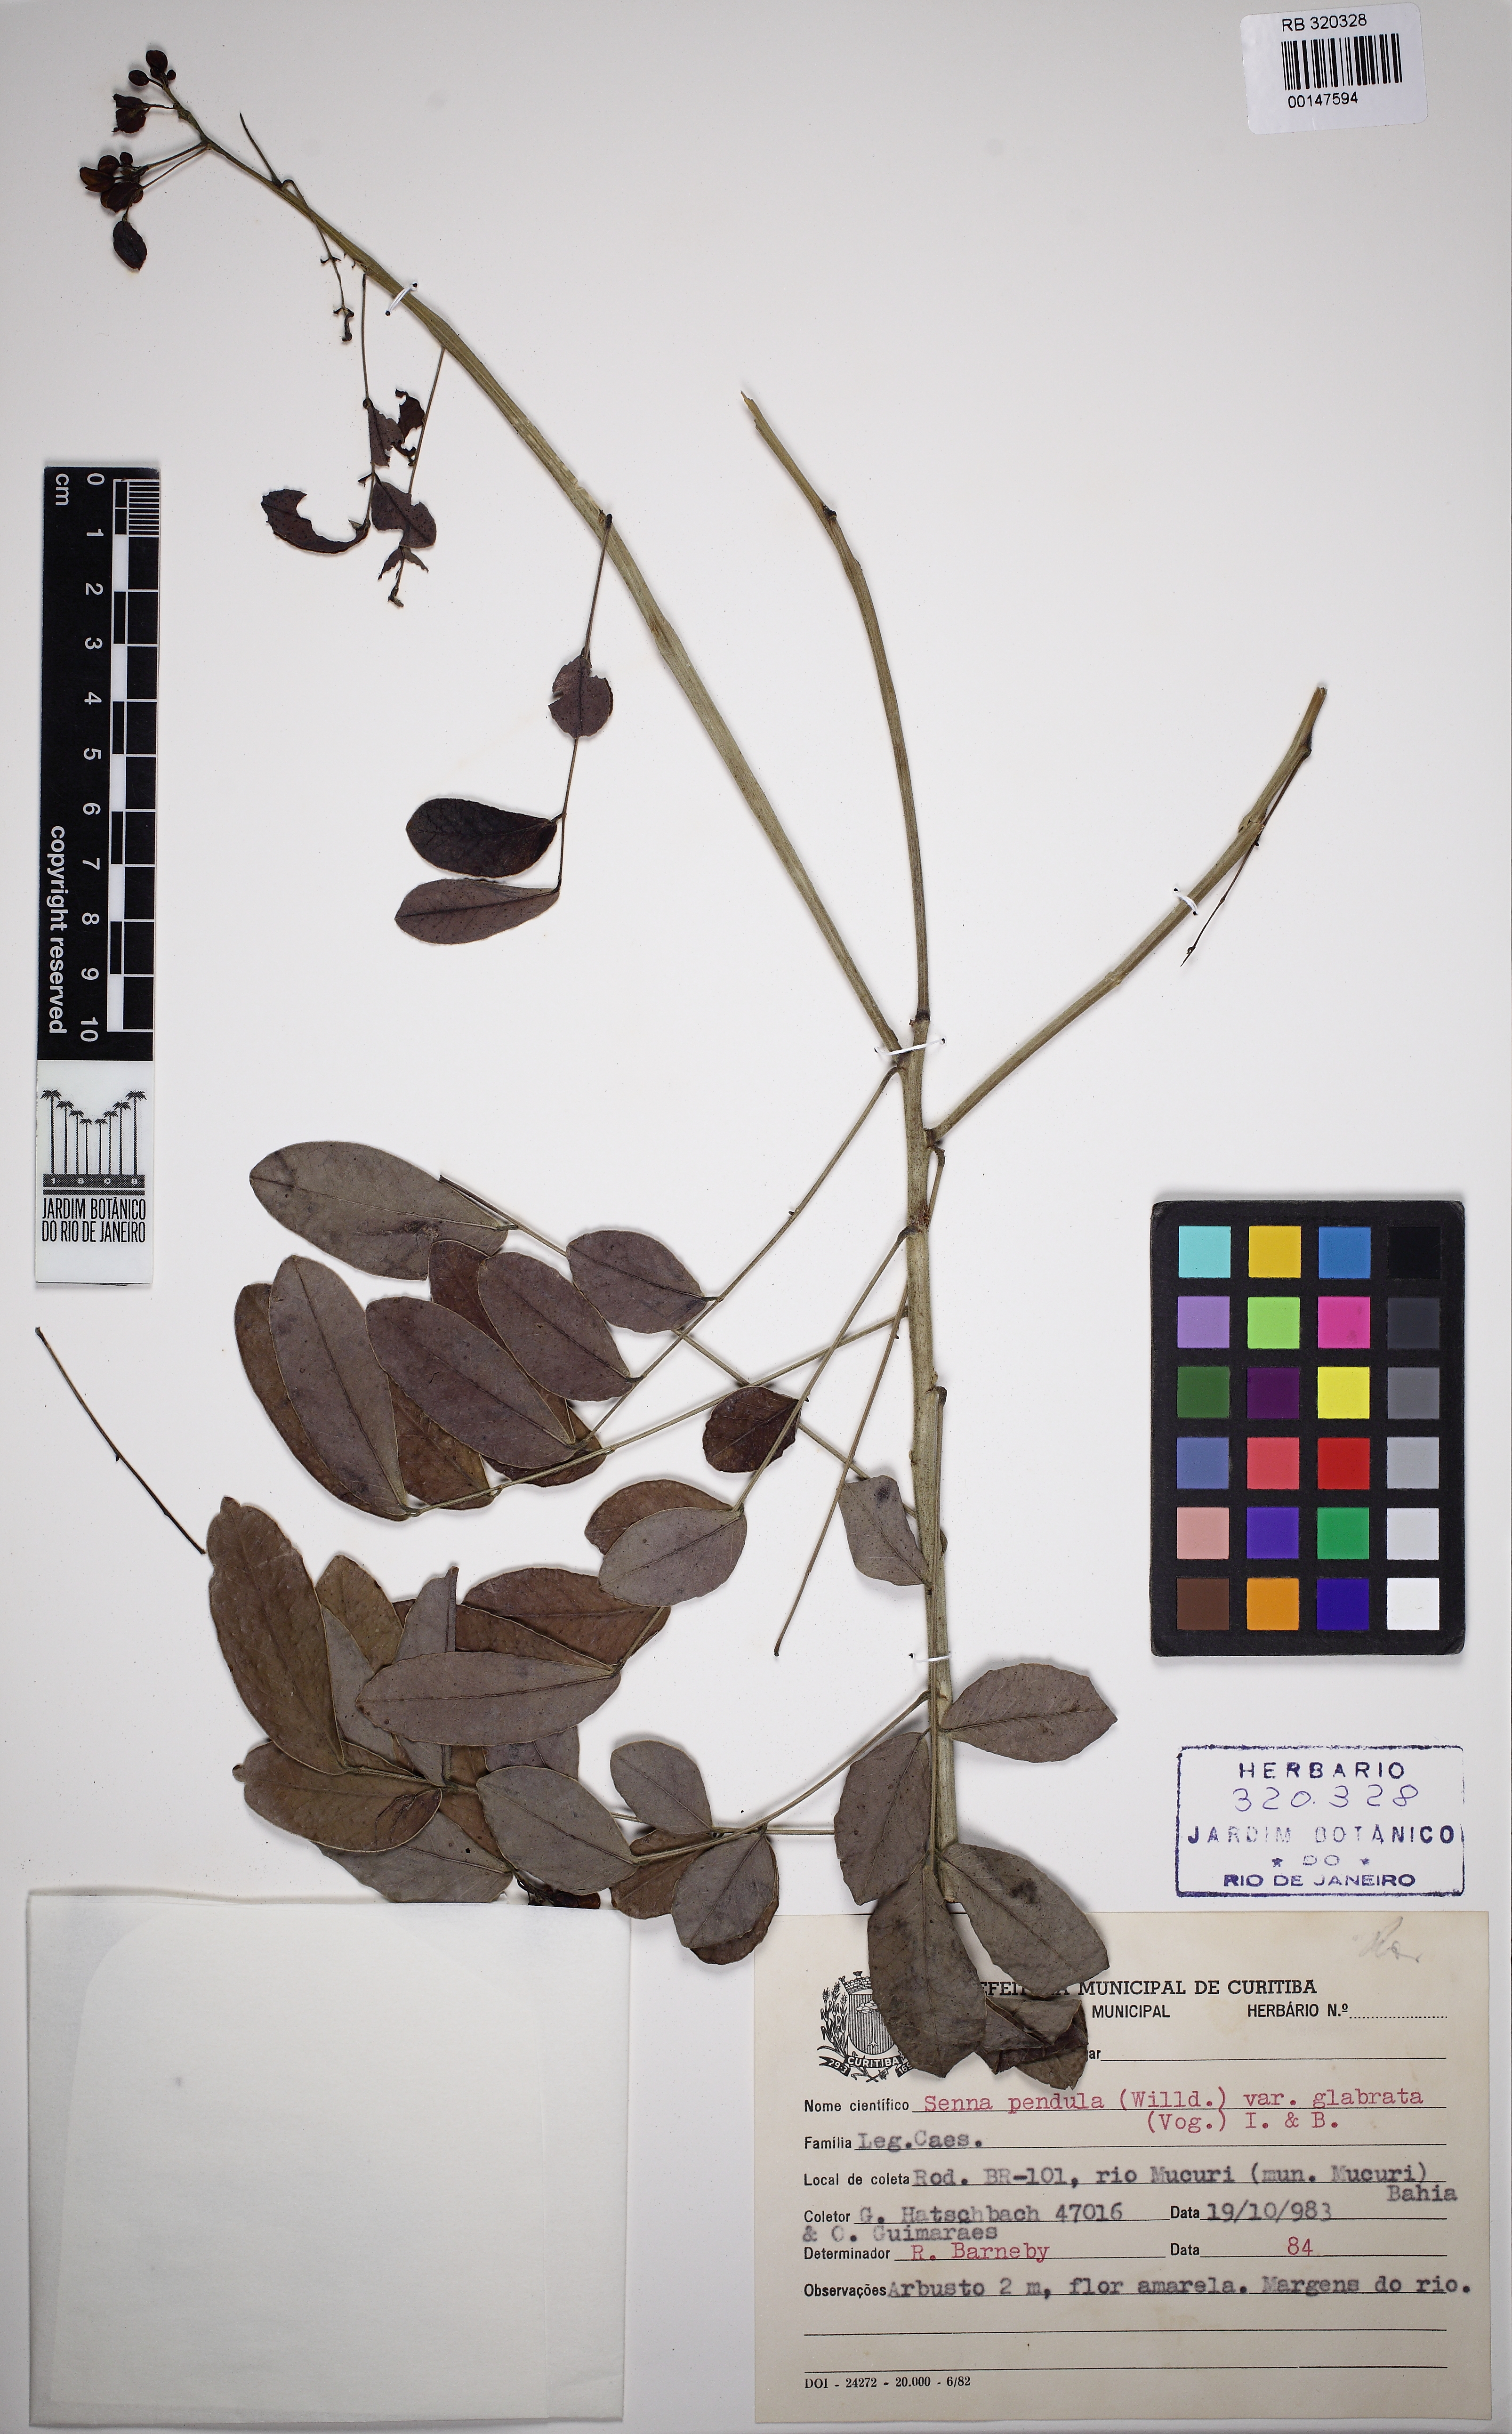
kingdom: Plantae
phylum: Tracheophyta
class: Magnoliopsida
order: Fabales
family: Fabaceae
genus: Senna
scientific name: Senna pendula
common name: Easter cassia
